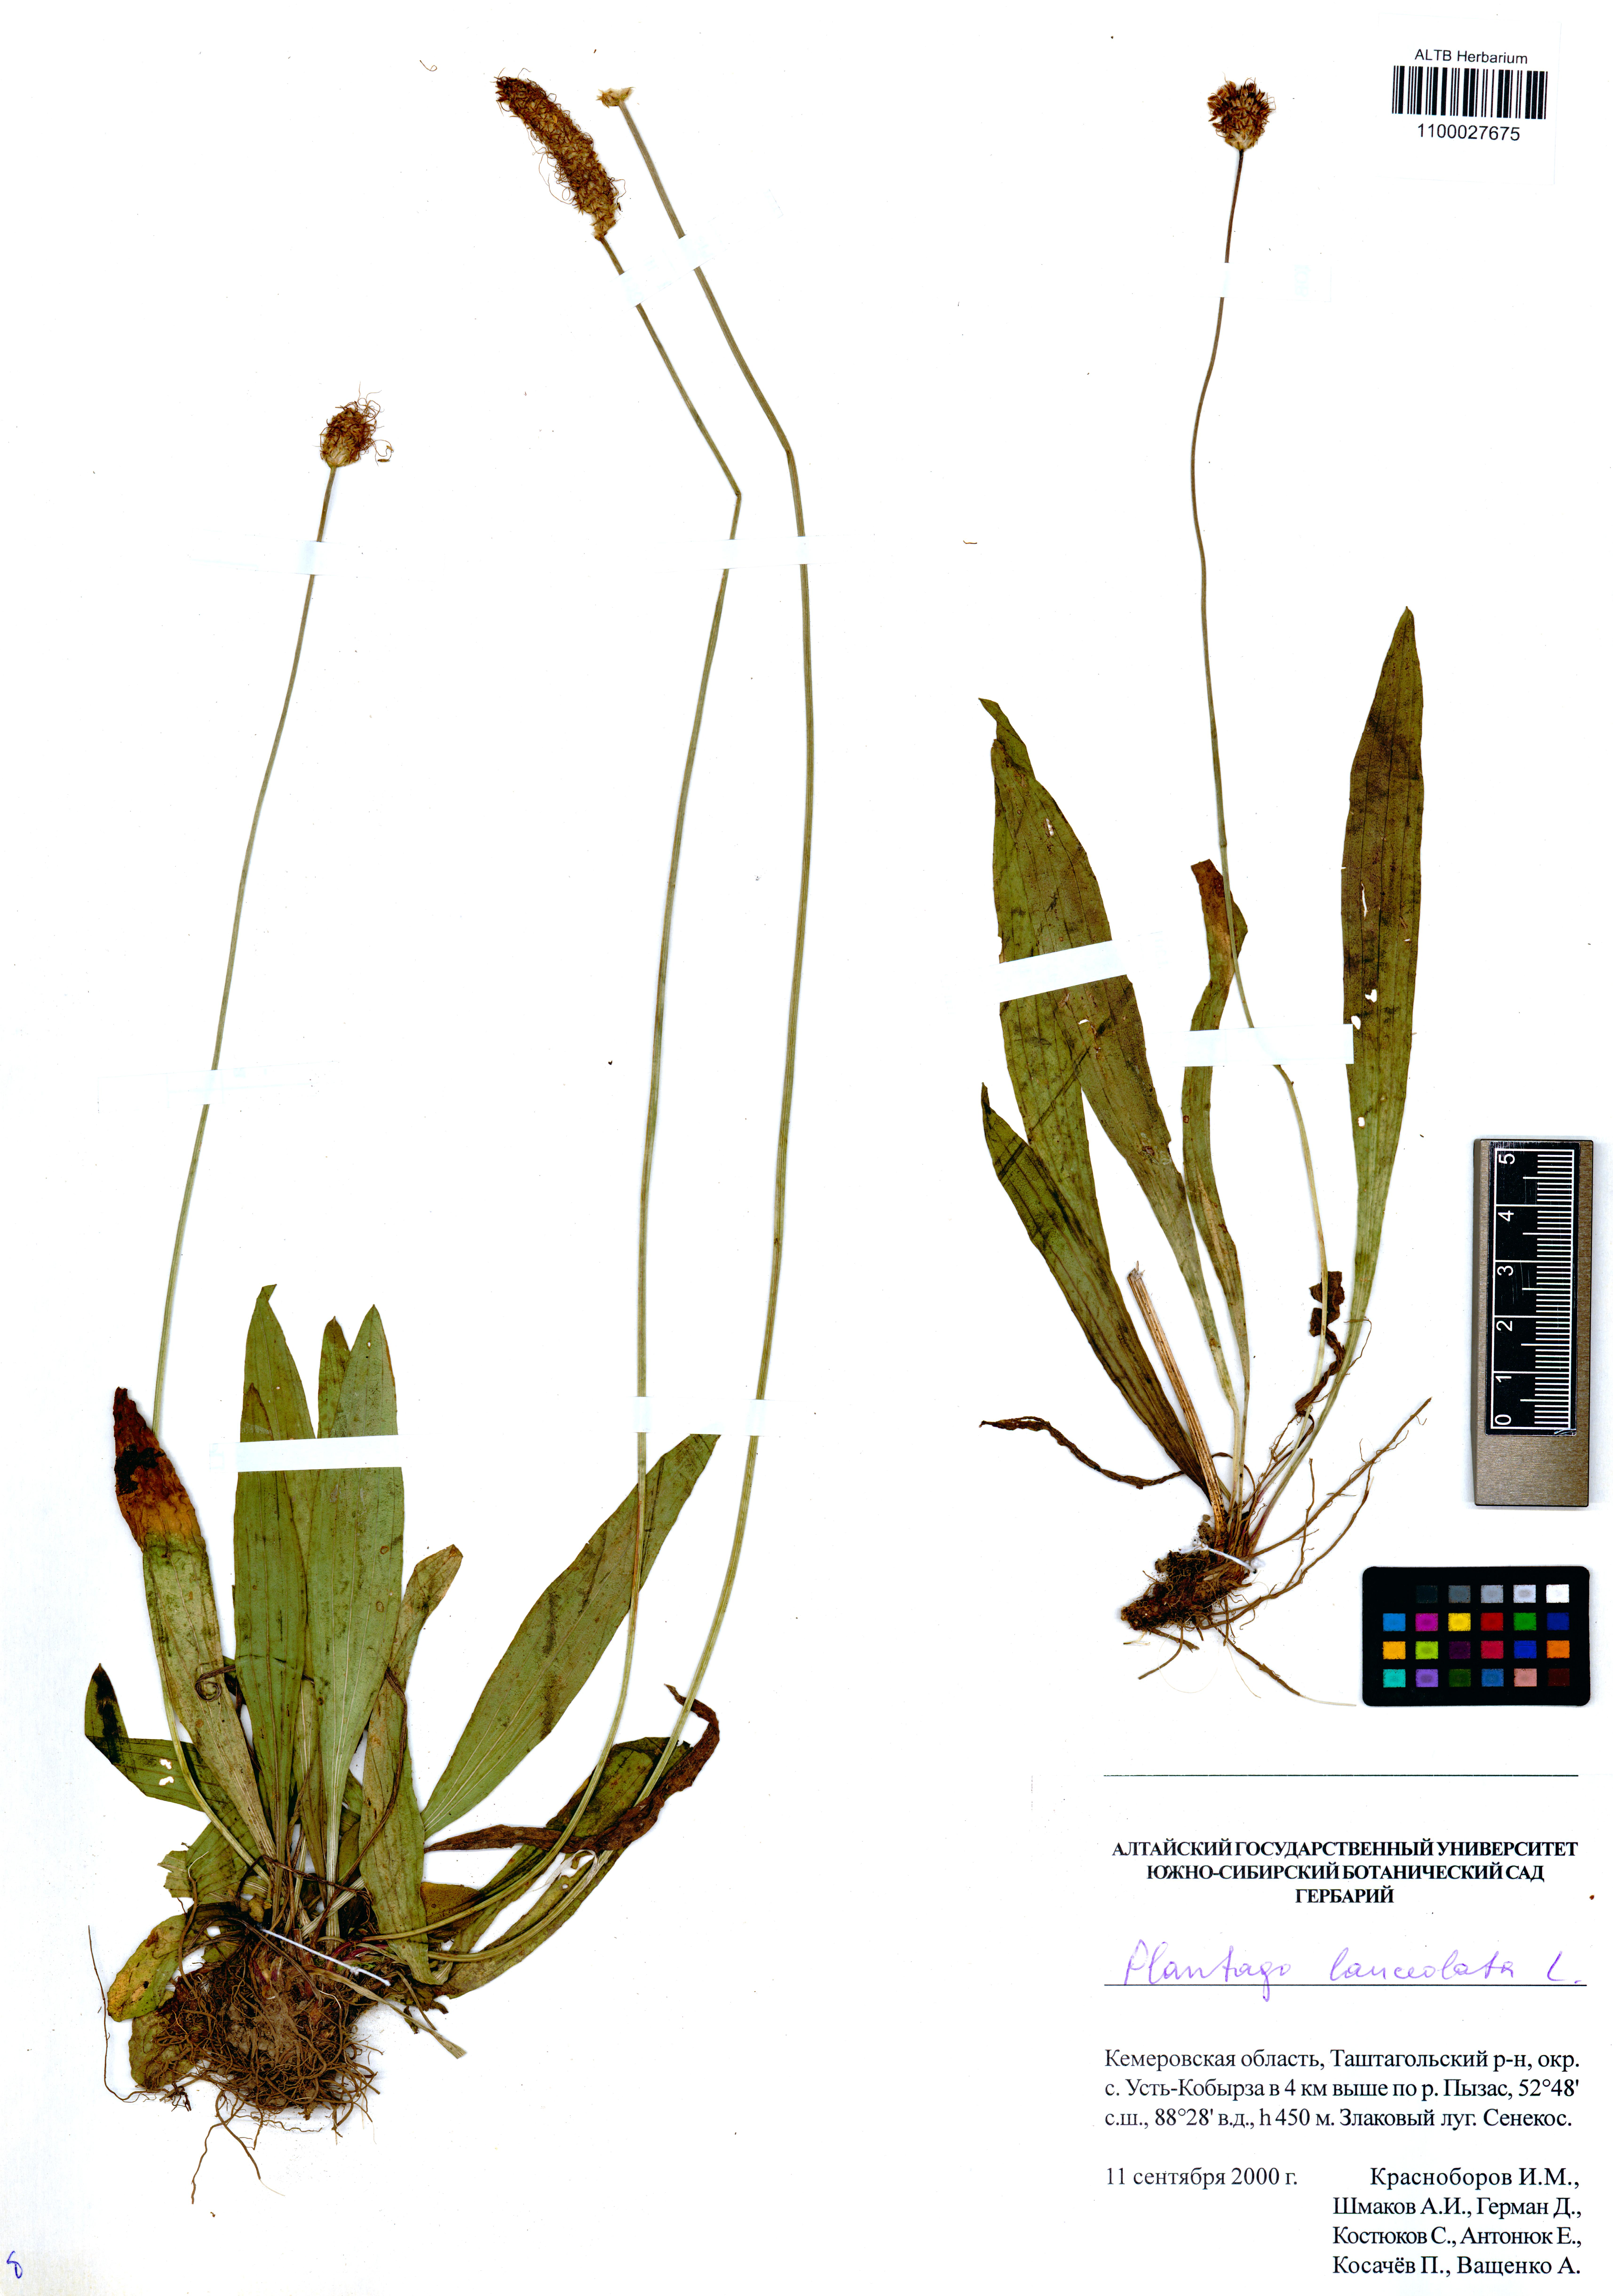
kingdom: Plantae
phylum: Tracheophyta
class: Magnoliopsida
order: Lamiales
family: Plantaginaceae
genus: Plantago
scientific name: Plantago lanceolata
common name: Ribwort plantain
